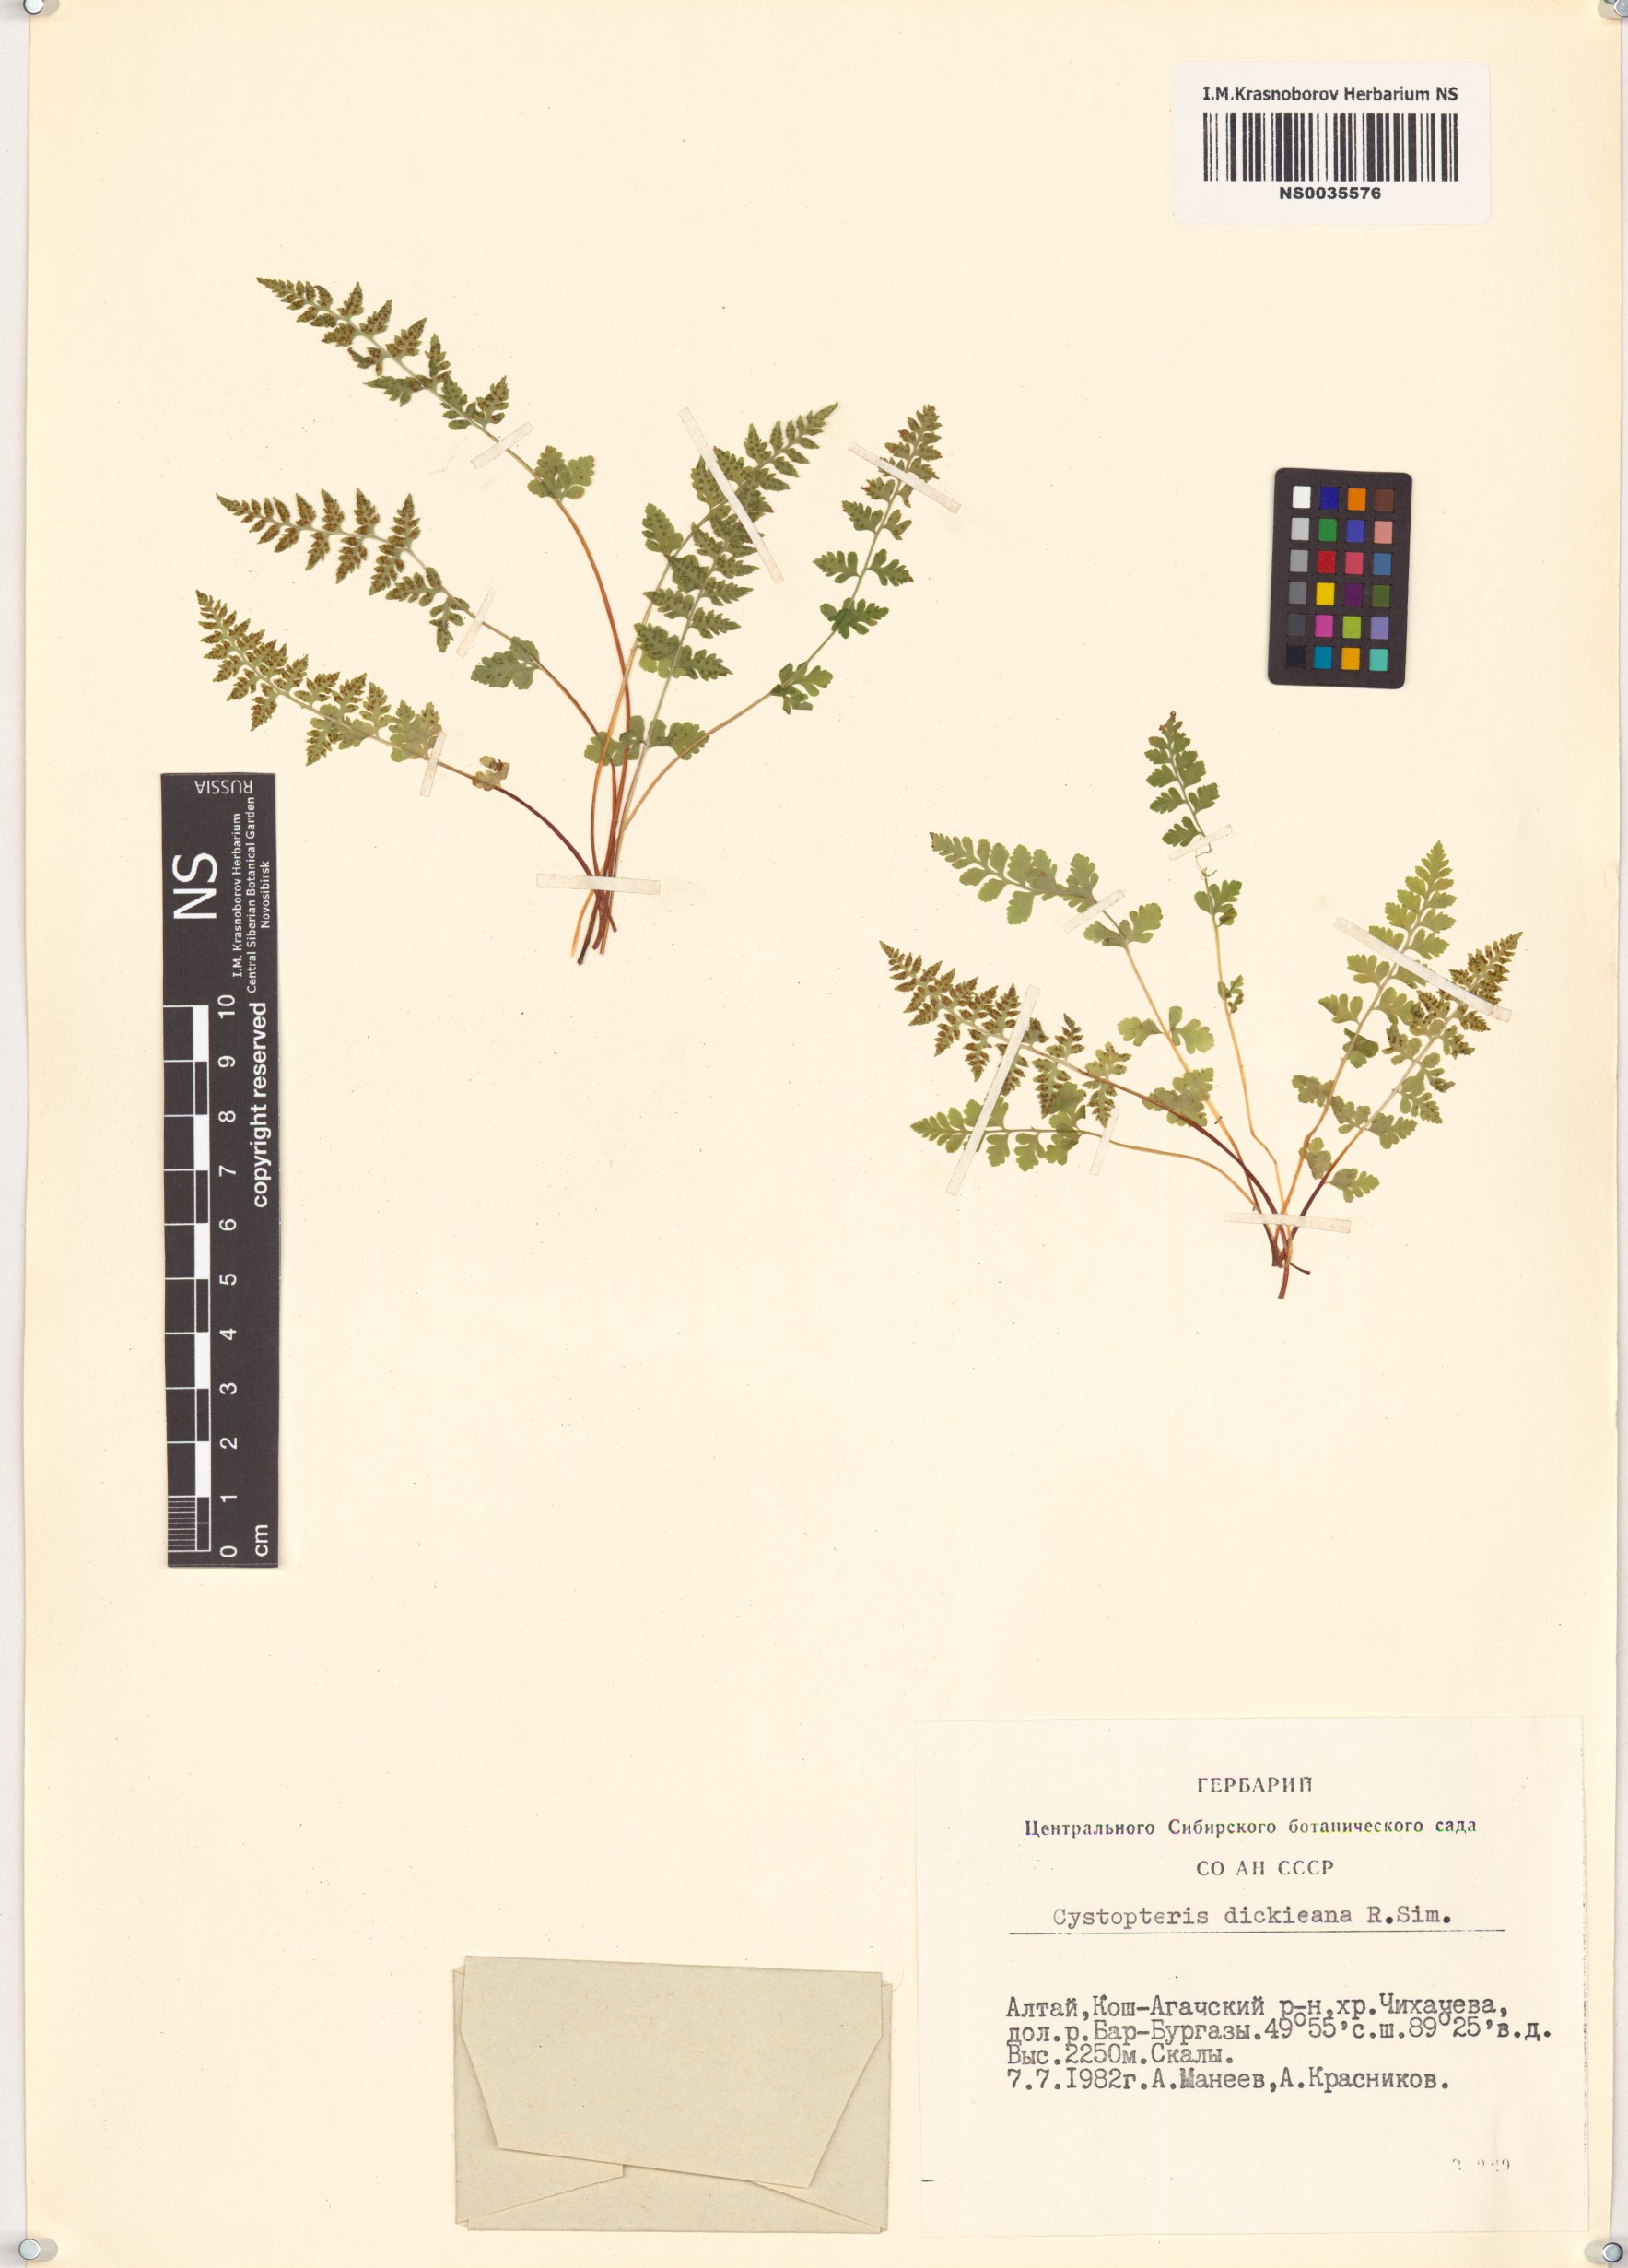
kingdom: Plantae
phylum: Tracheophyta
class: Polypodiopsida
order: Polypodiales
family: Cystopteridaceae
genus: Cystopteris
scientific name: Cystopteris dickieana
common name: Dickie's bladder-fern
